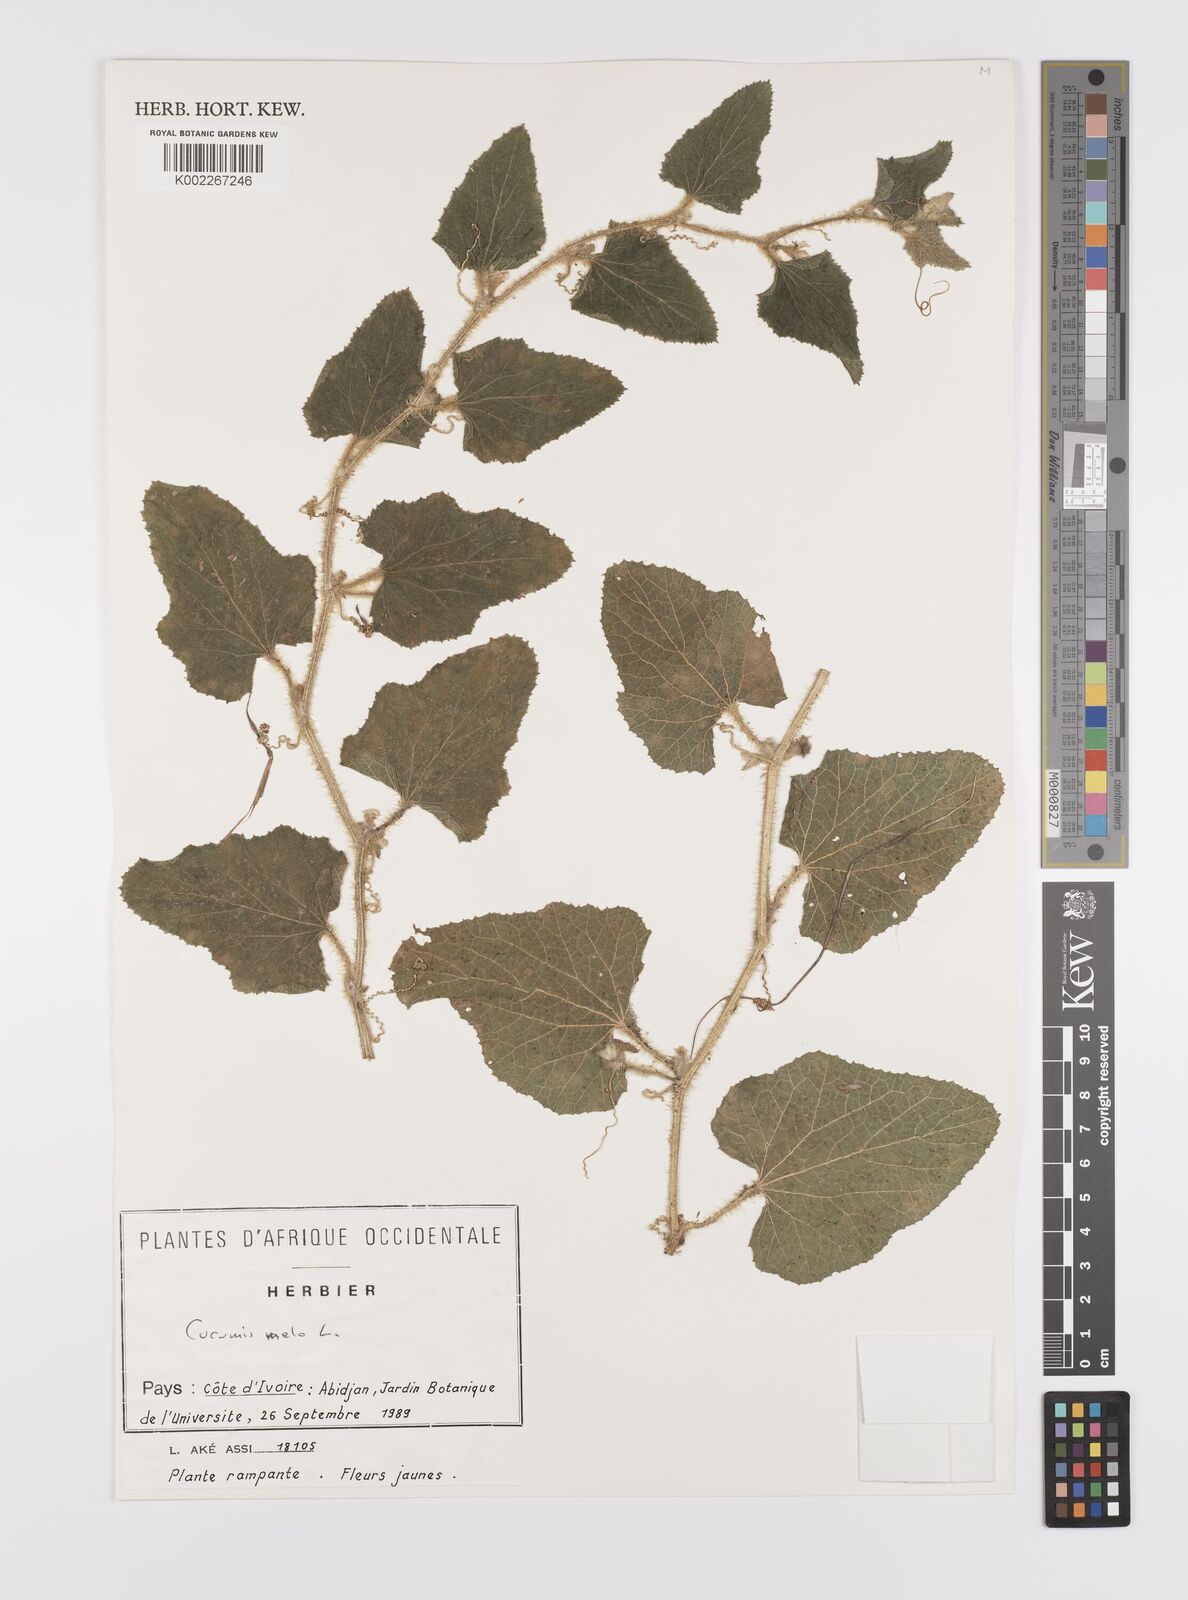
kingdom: Plantae
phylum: Tracheophyta
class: Magnoliopsida
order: Cucurbitales
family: Cucurbitaceae
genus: Cucumis
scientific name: Cucumis melo
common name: Melon
